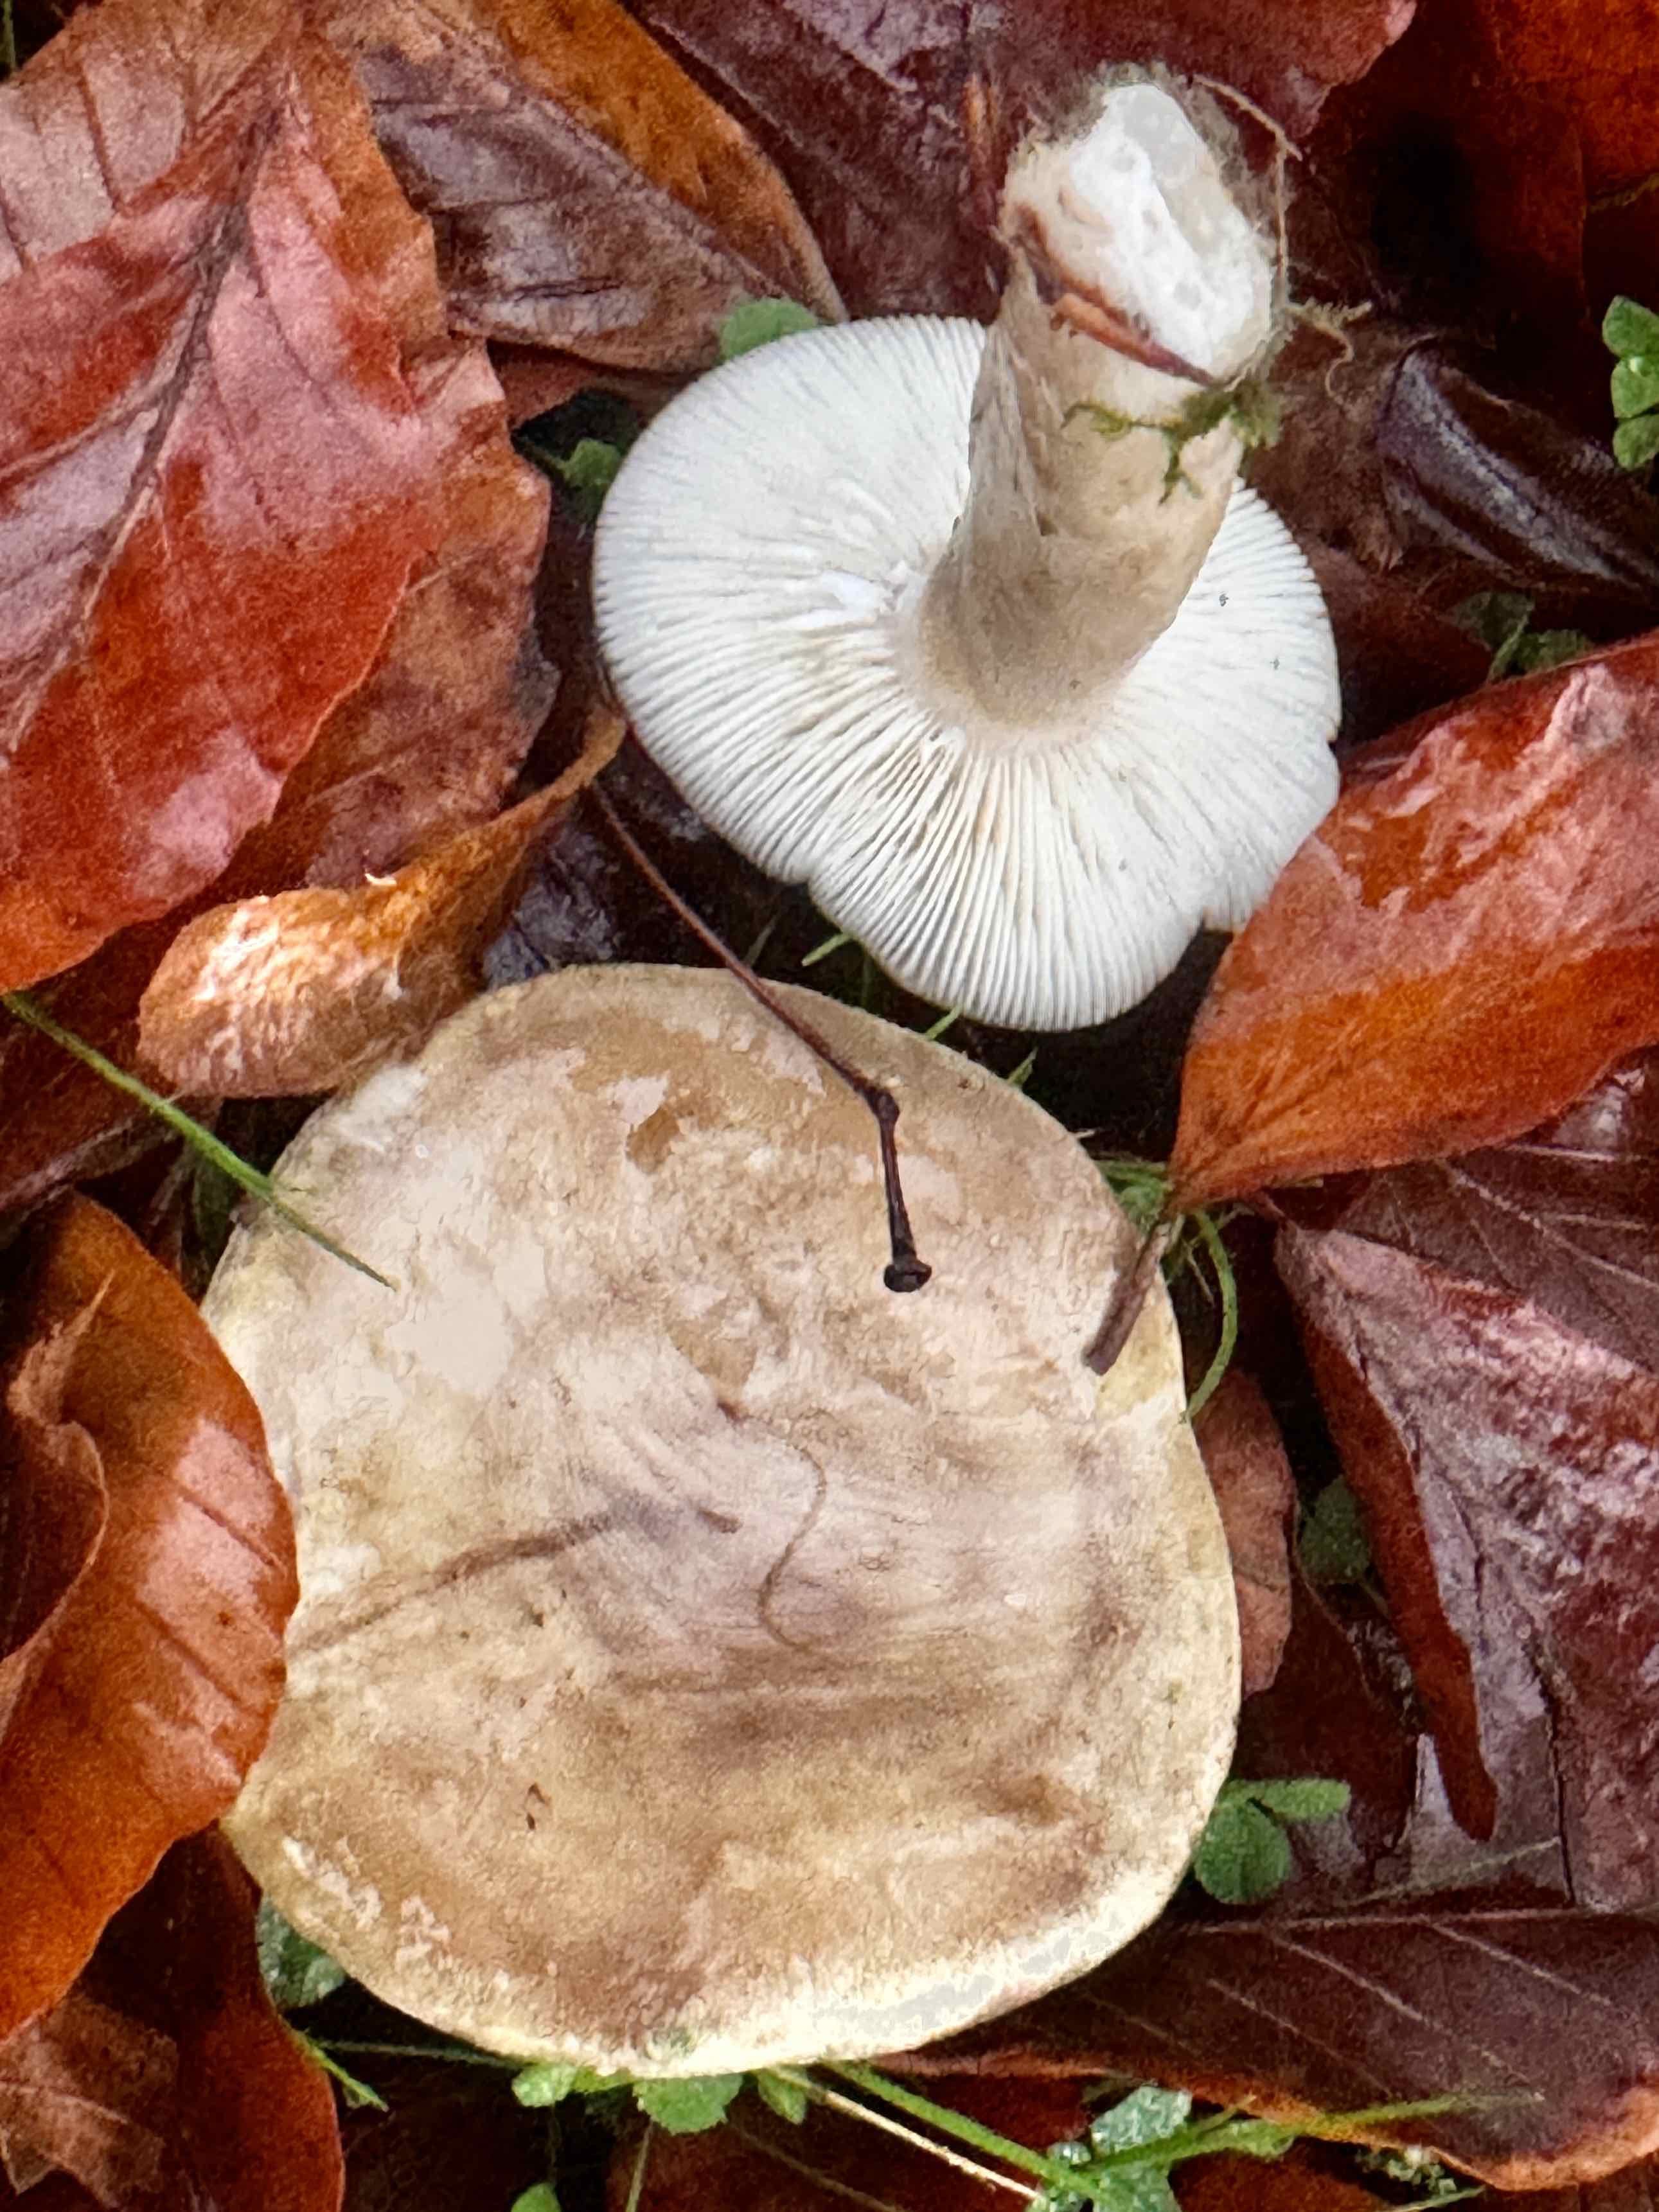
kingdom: Fungi
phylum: Basidiomycota
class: Agaricomycetes
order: Russulales
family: Russulaceae
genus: Lactarius
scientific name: Lactarius blennius
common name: dråbeplettet mælkehat
